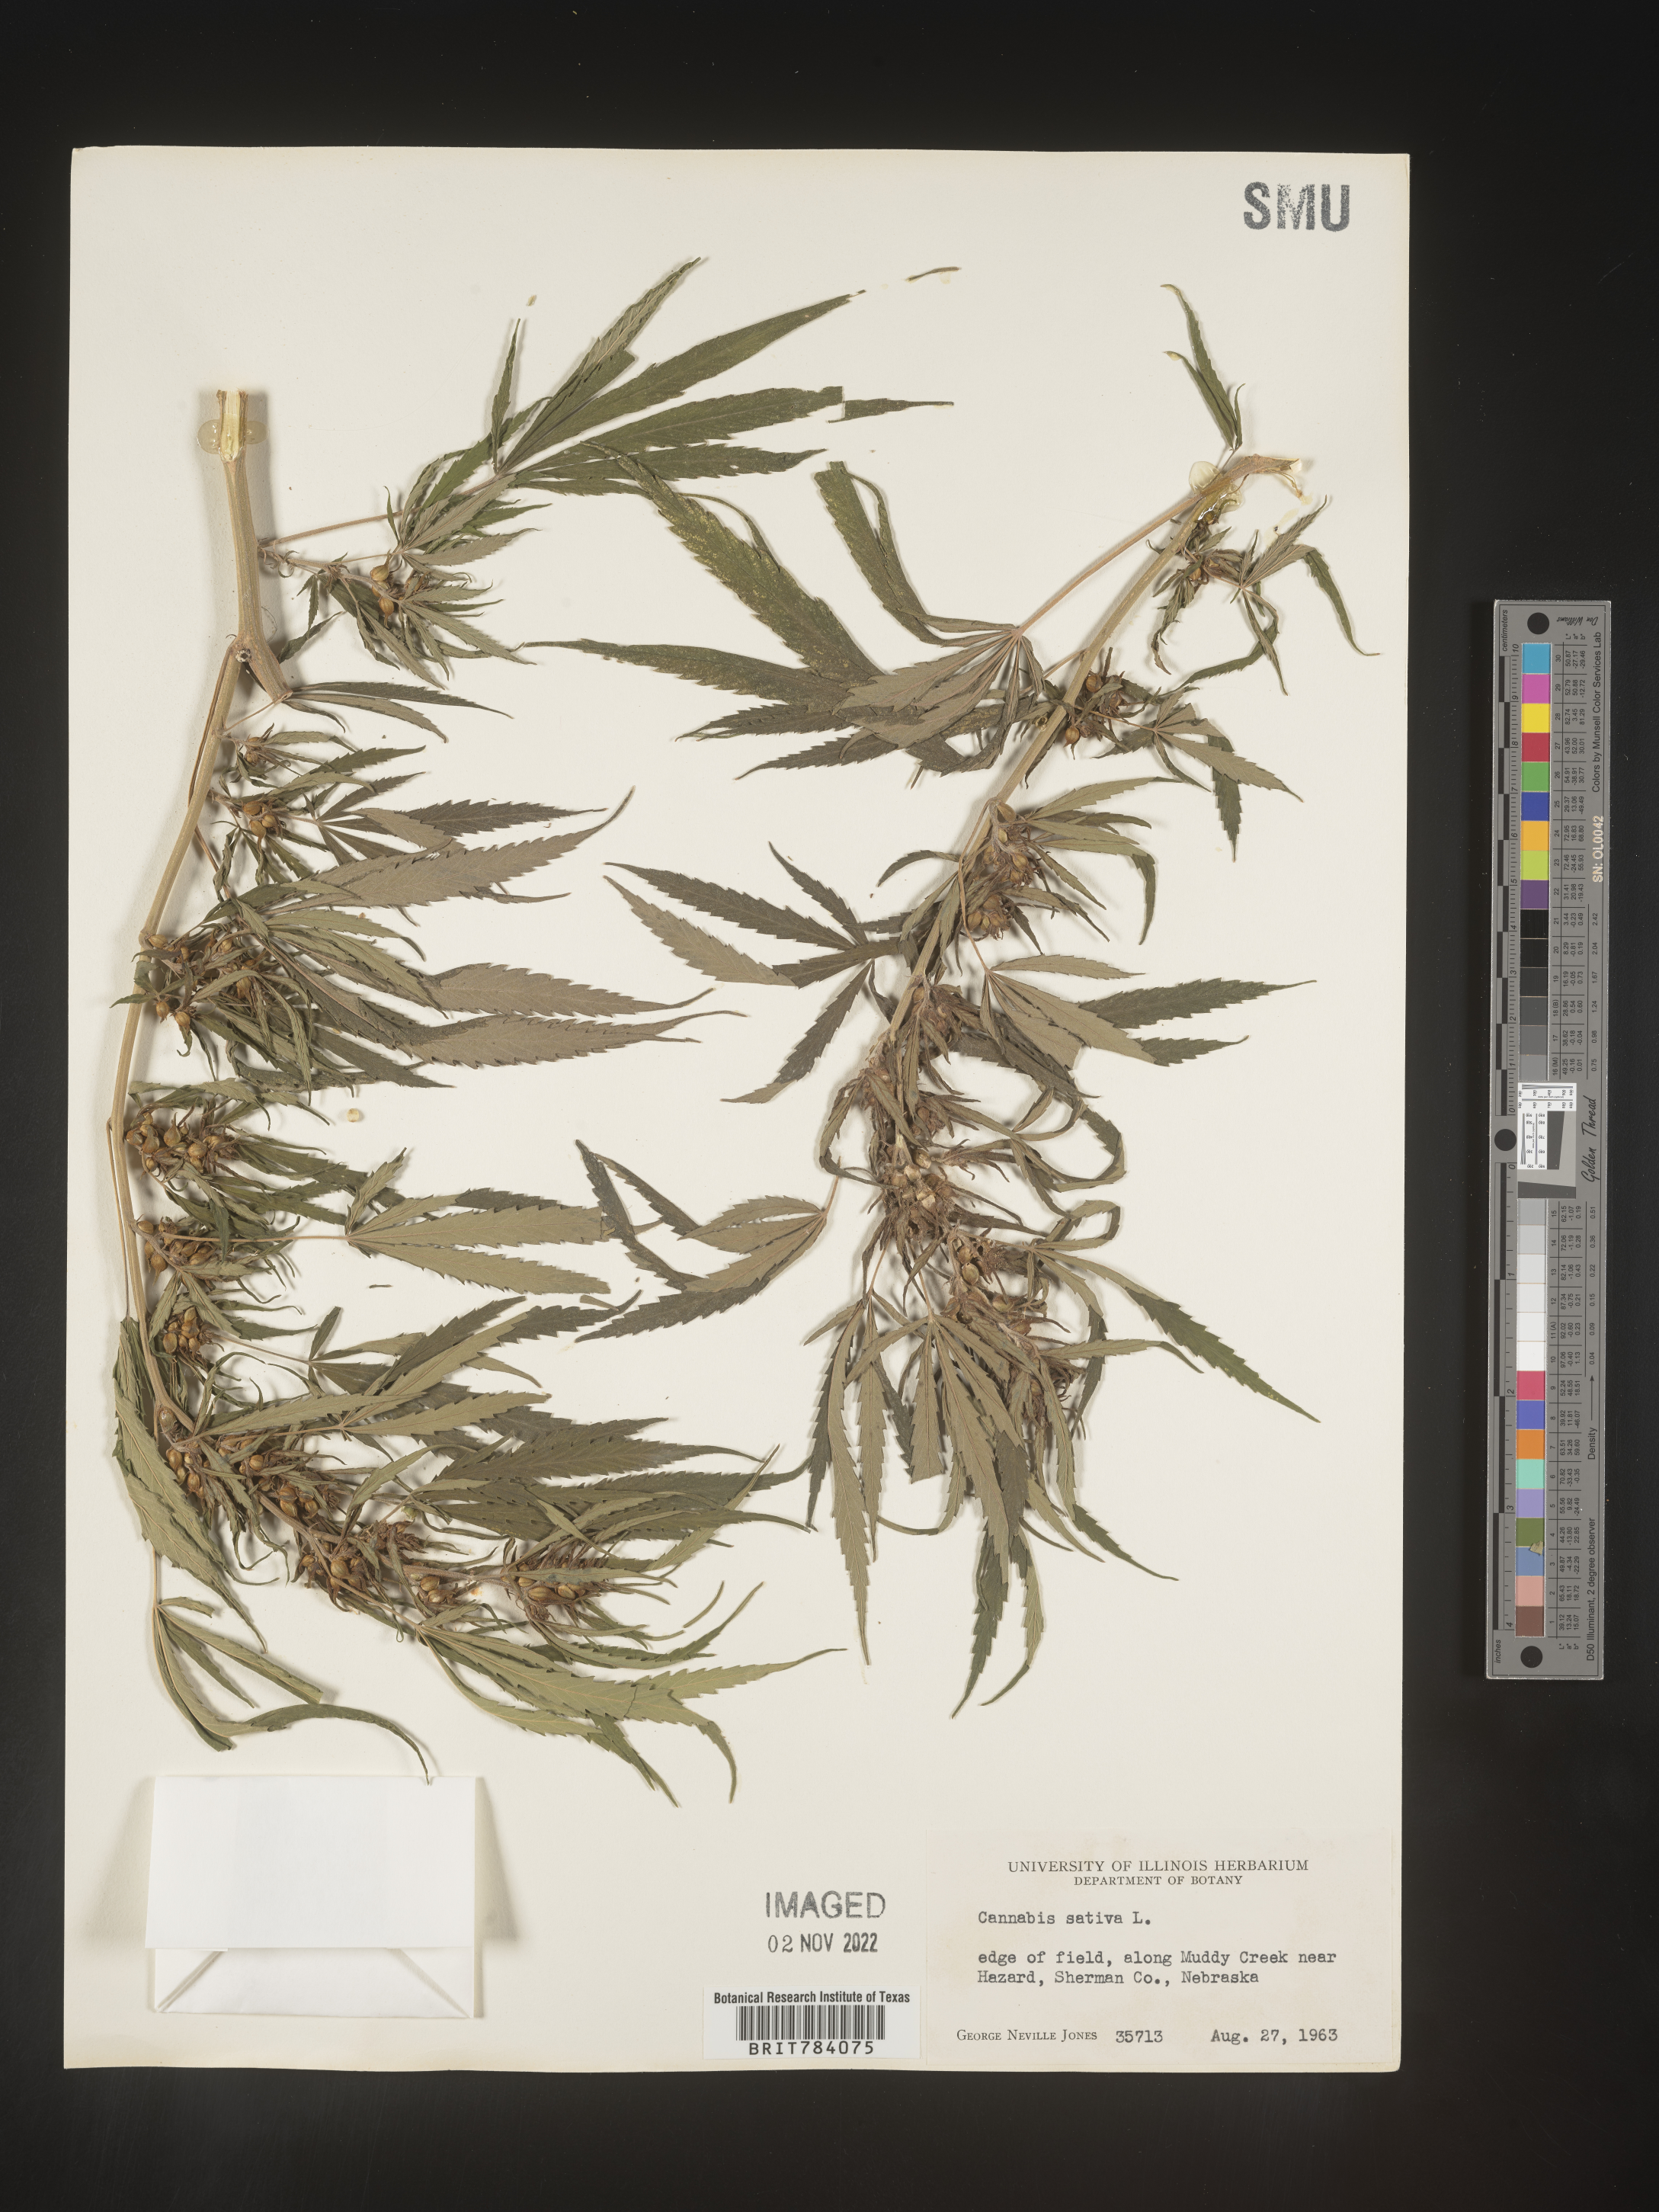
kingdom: Plantae
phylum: Tracheophyta
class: Magnoliopsida
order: Rosales
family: Cannabaceae
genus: Cannabis
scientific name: Cannabis sativa
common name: Hemp
